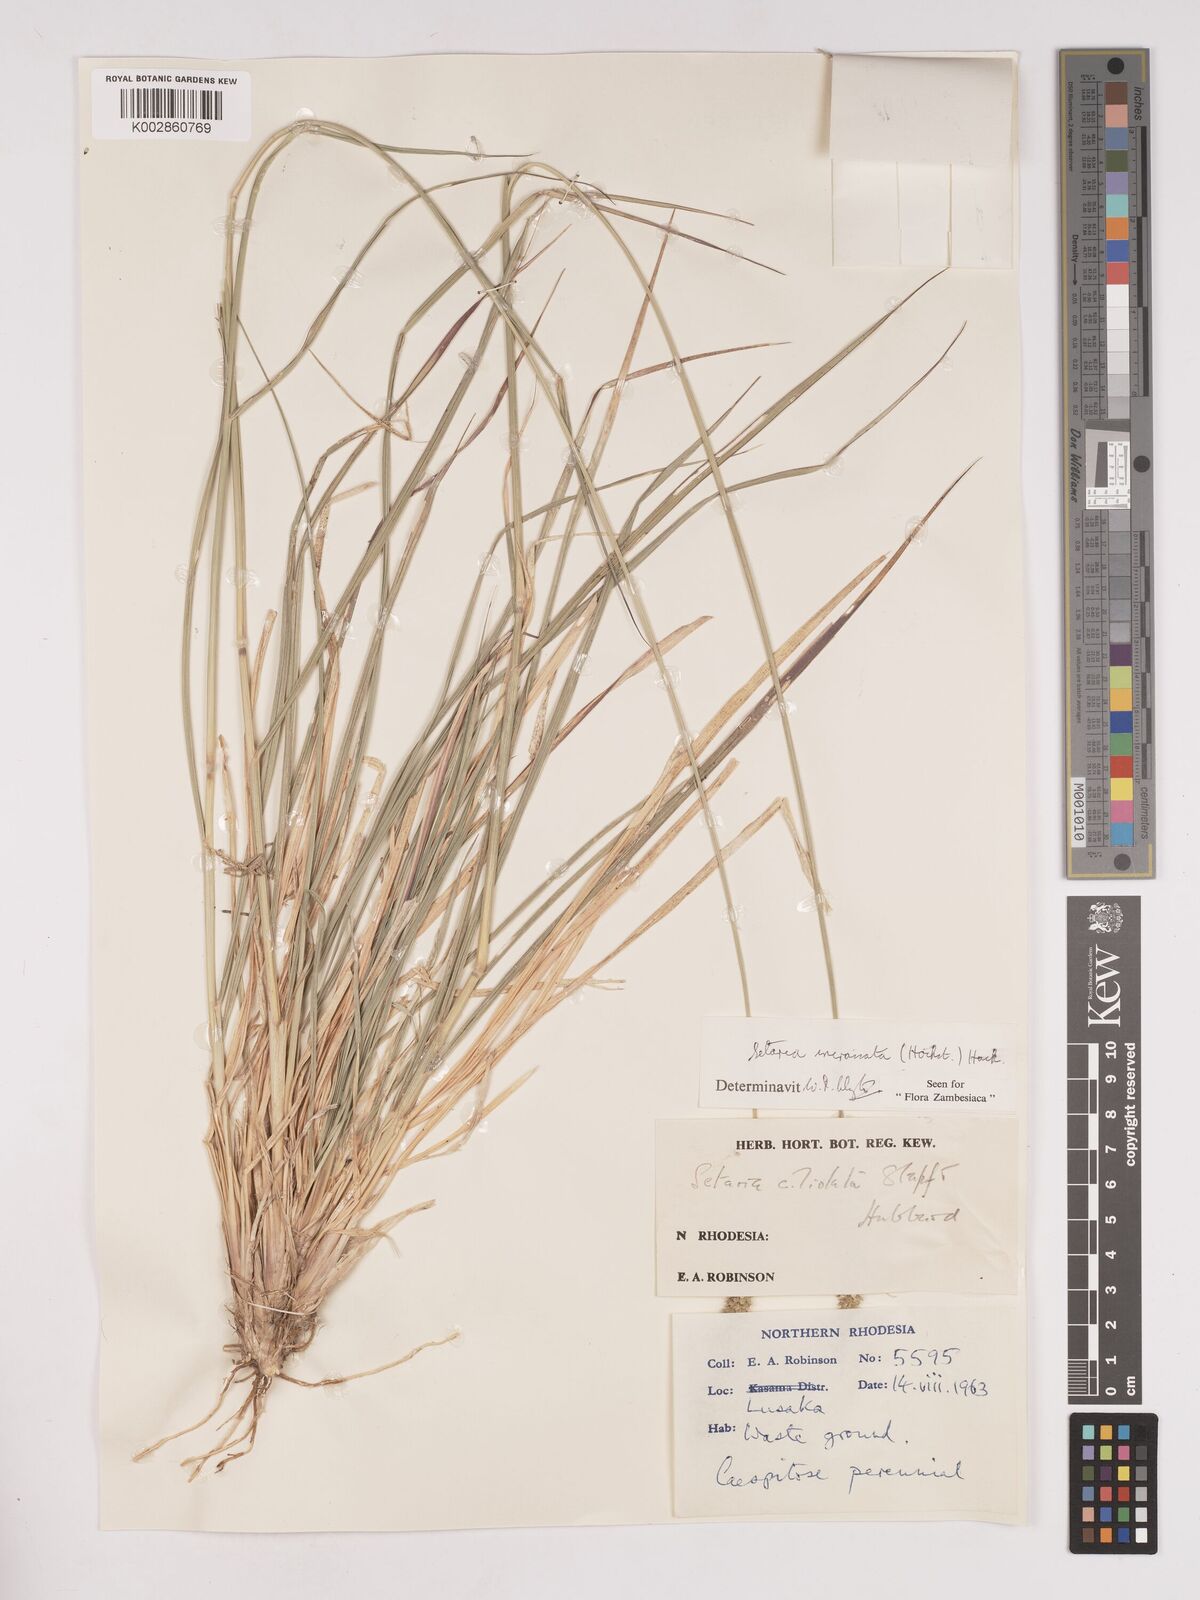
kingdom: Plantae
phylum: Tracheophyta
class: Liliopsida
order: Poales
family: Poaceae
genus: Setaria
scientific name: Setaria incrassata
